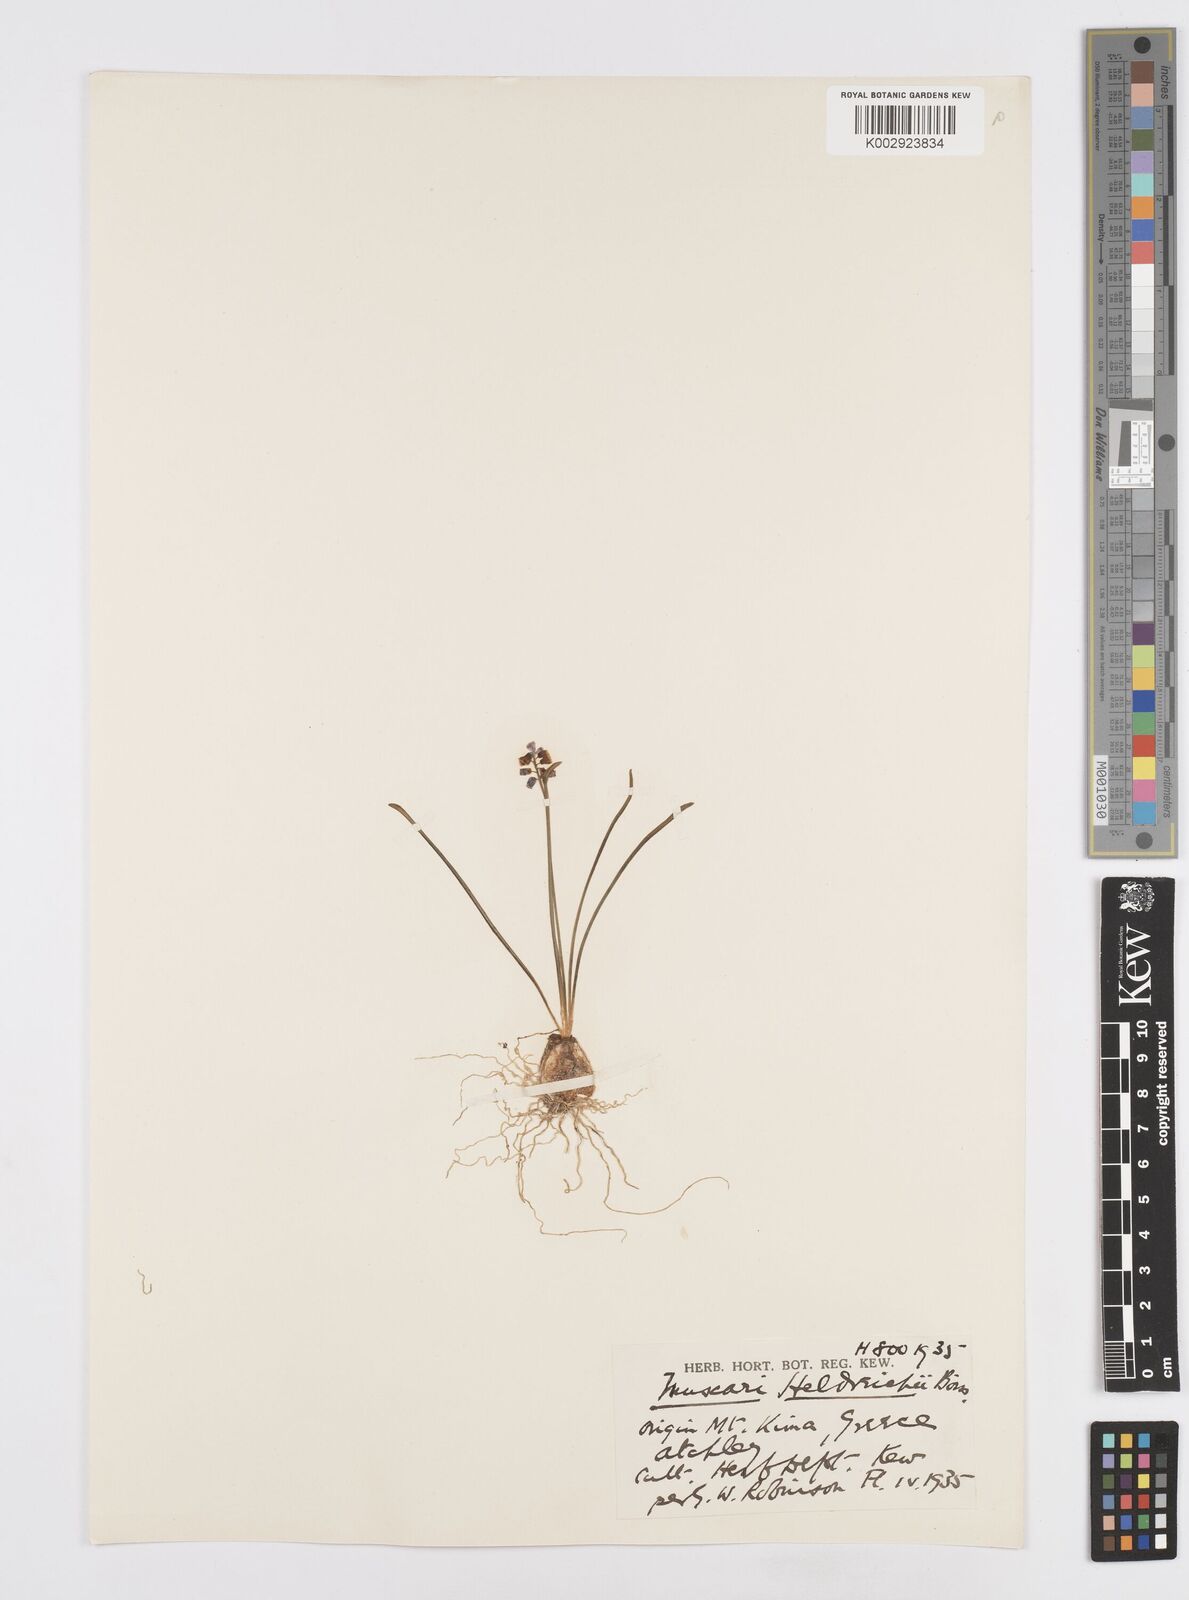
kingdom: Plantae
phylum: Tracheophyta
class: Liliopsida
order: Asparagales
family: Asparagaceae
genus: Muscari
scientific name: Muscari heldreichii
